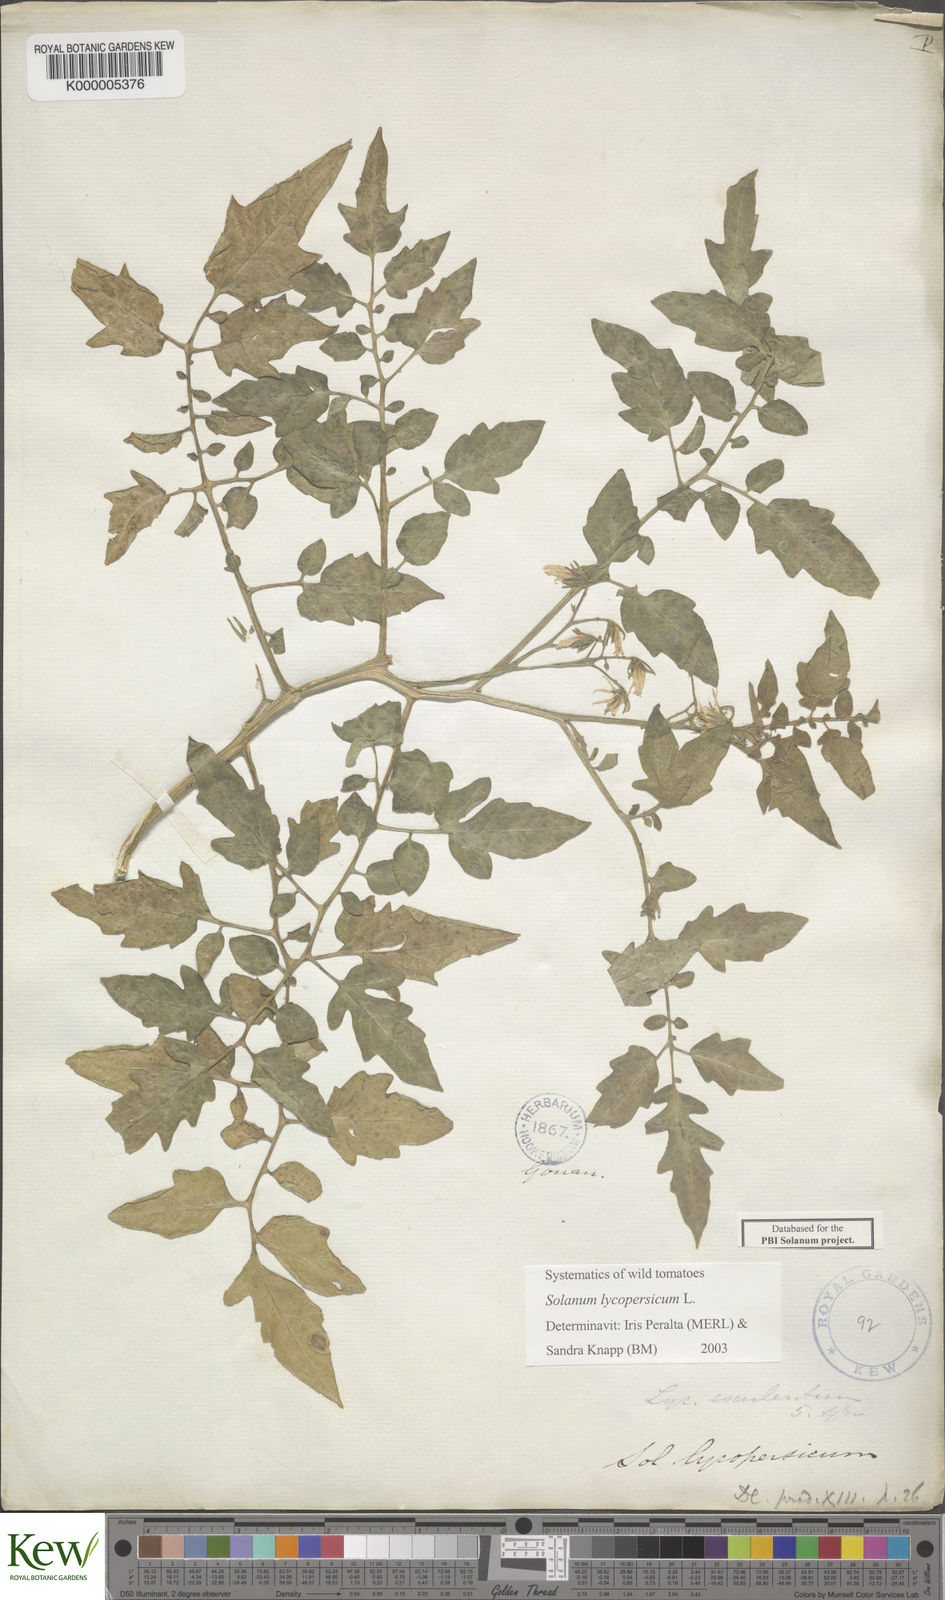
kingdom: Plantae
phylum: Tracheophyta
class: Magnoliopsida
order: Solanales
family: Solanaceae
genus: Solanum
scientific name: Solanum lycopersicum
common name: Garden tomato
